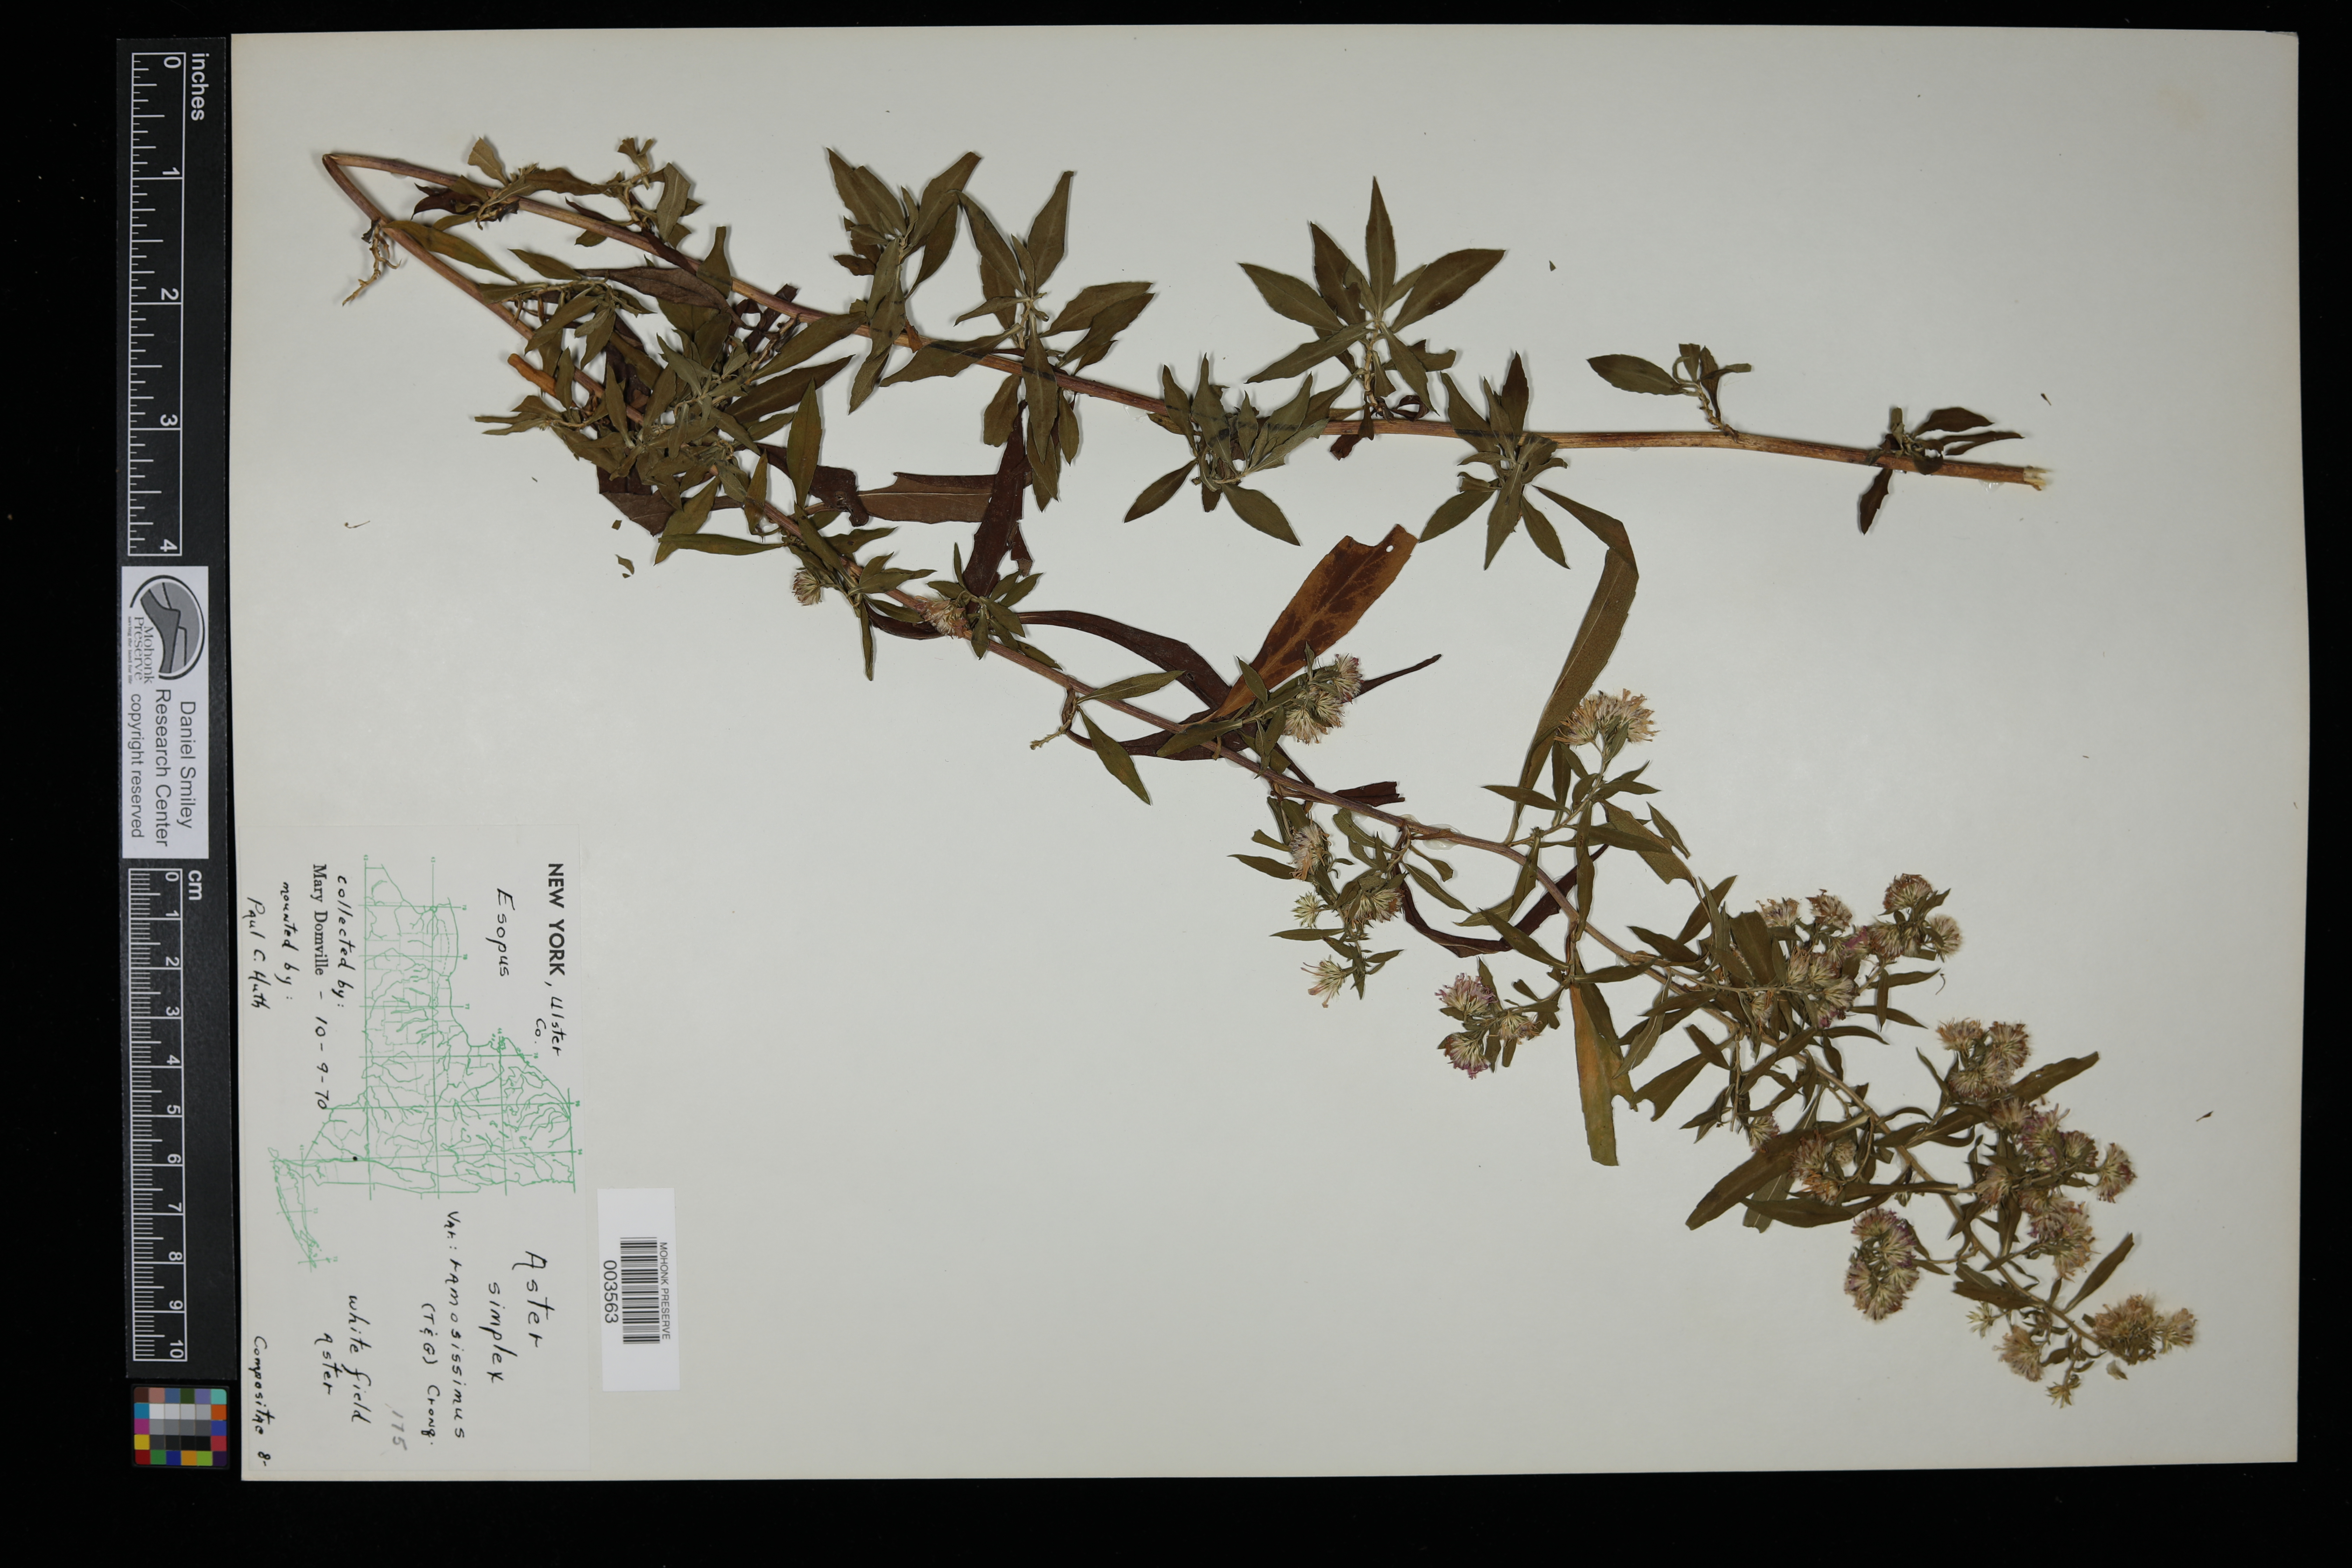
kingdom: Plantae
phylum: Tracheophyta
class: Magnoliopsida
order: Asterales
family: Asteraceae
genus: Symphyotrichum
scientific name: Symphyotrichum lanceolatum
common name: Panicled aster
